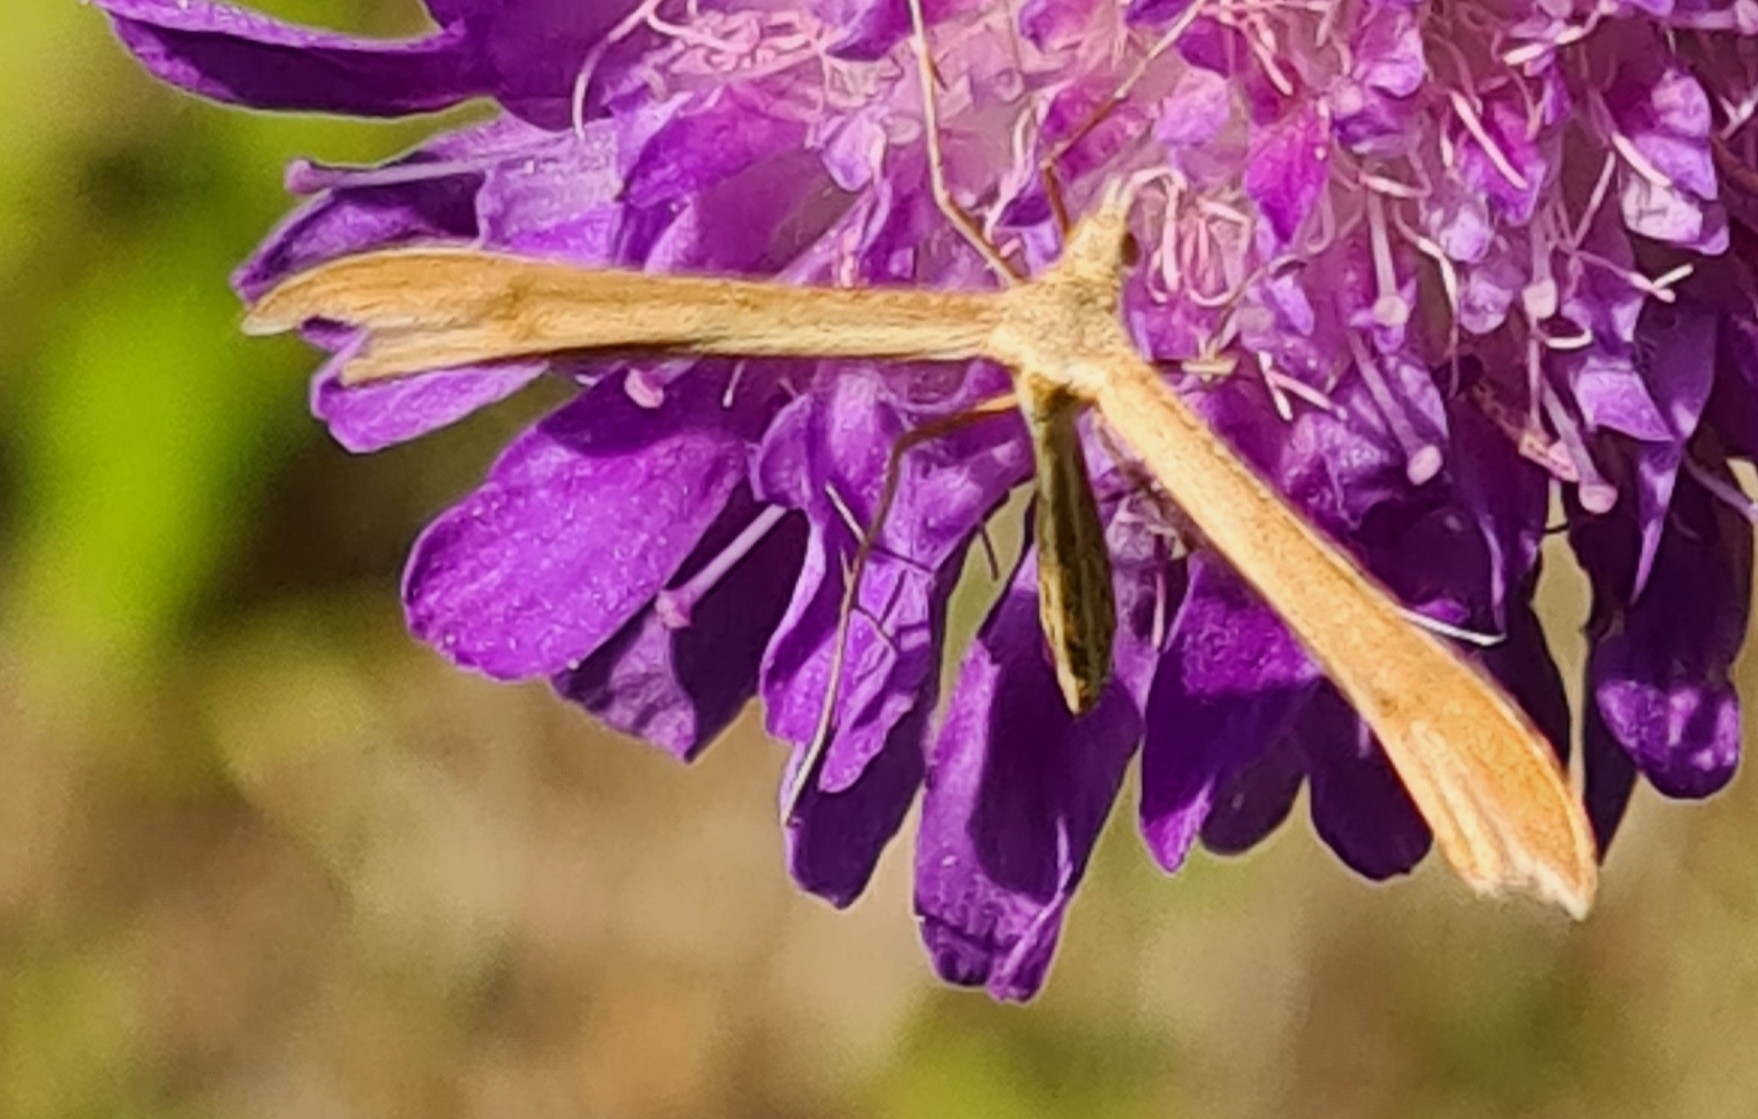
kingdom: Animalia
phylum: Arthropoda
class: Insecta
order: Lepidoptera
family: Pterophoridae
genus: Stenoptilia
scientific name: Stenoptilia pterodactyla
